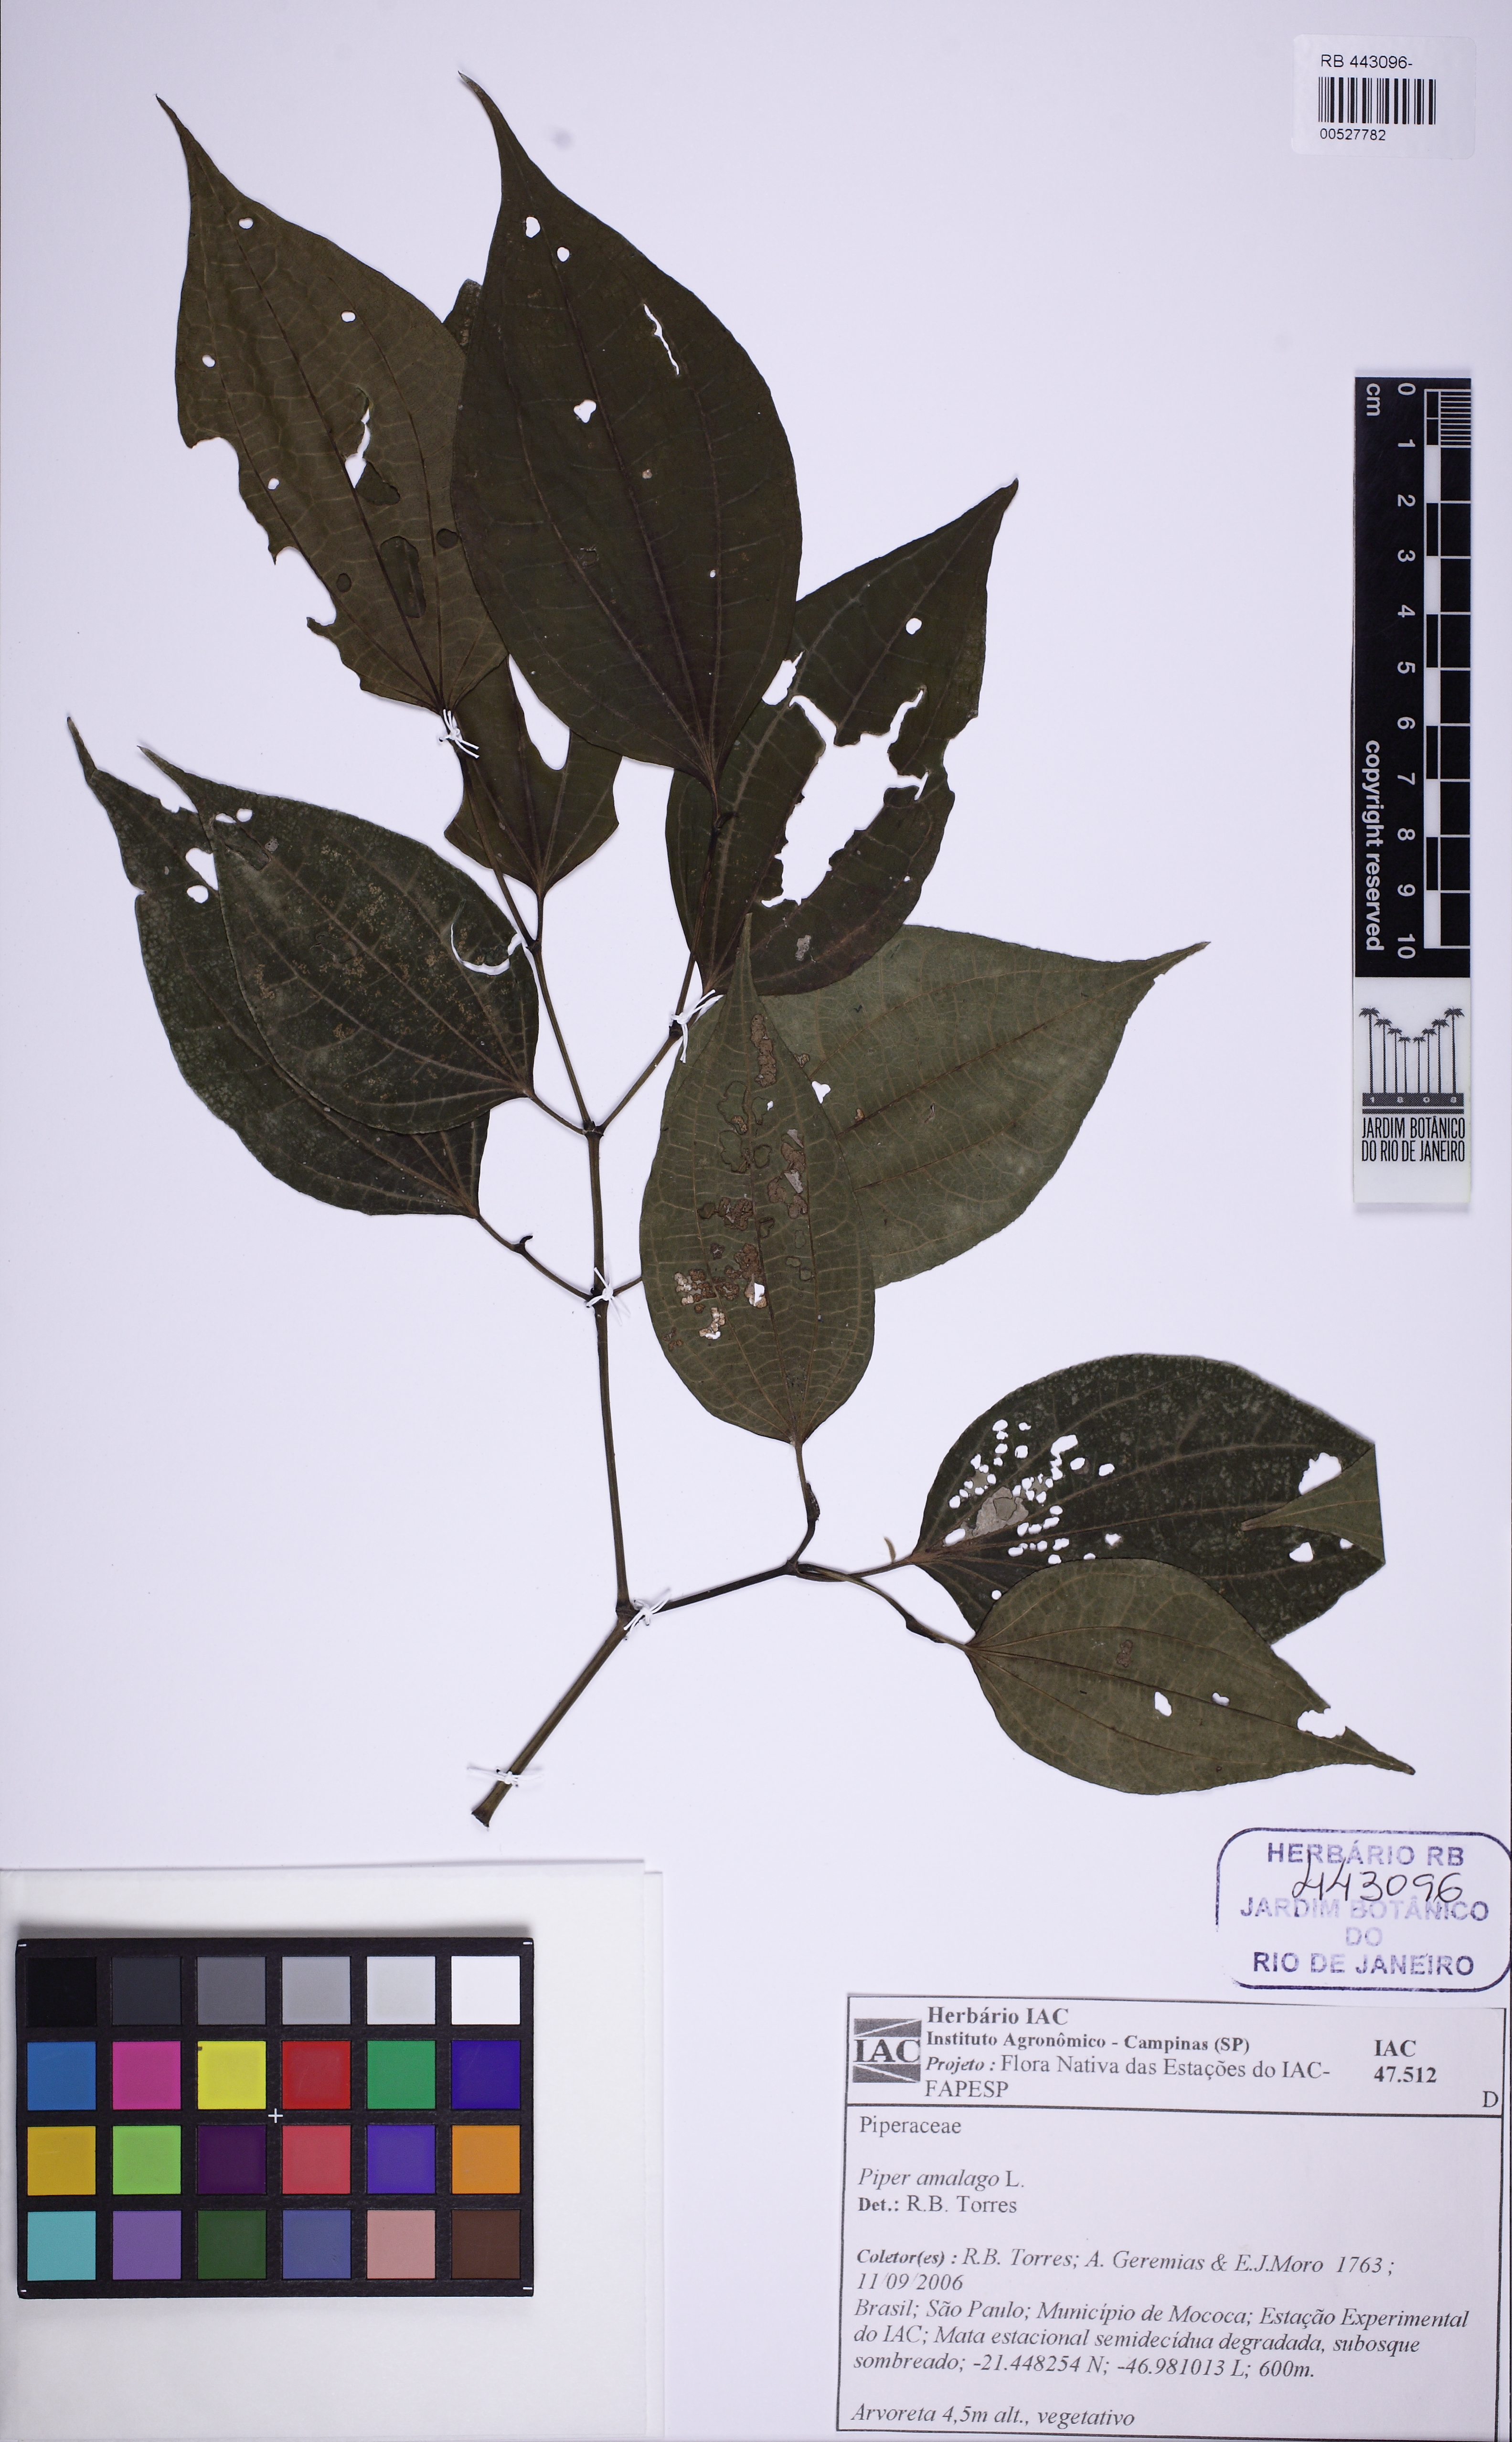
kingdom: Plantae
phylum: Tracheophyta
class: Magnoliopsida
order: Piperales
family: Piperaceae
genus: Piper
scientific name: Piper amalago
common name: Pepper-elder
